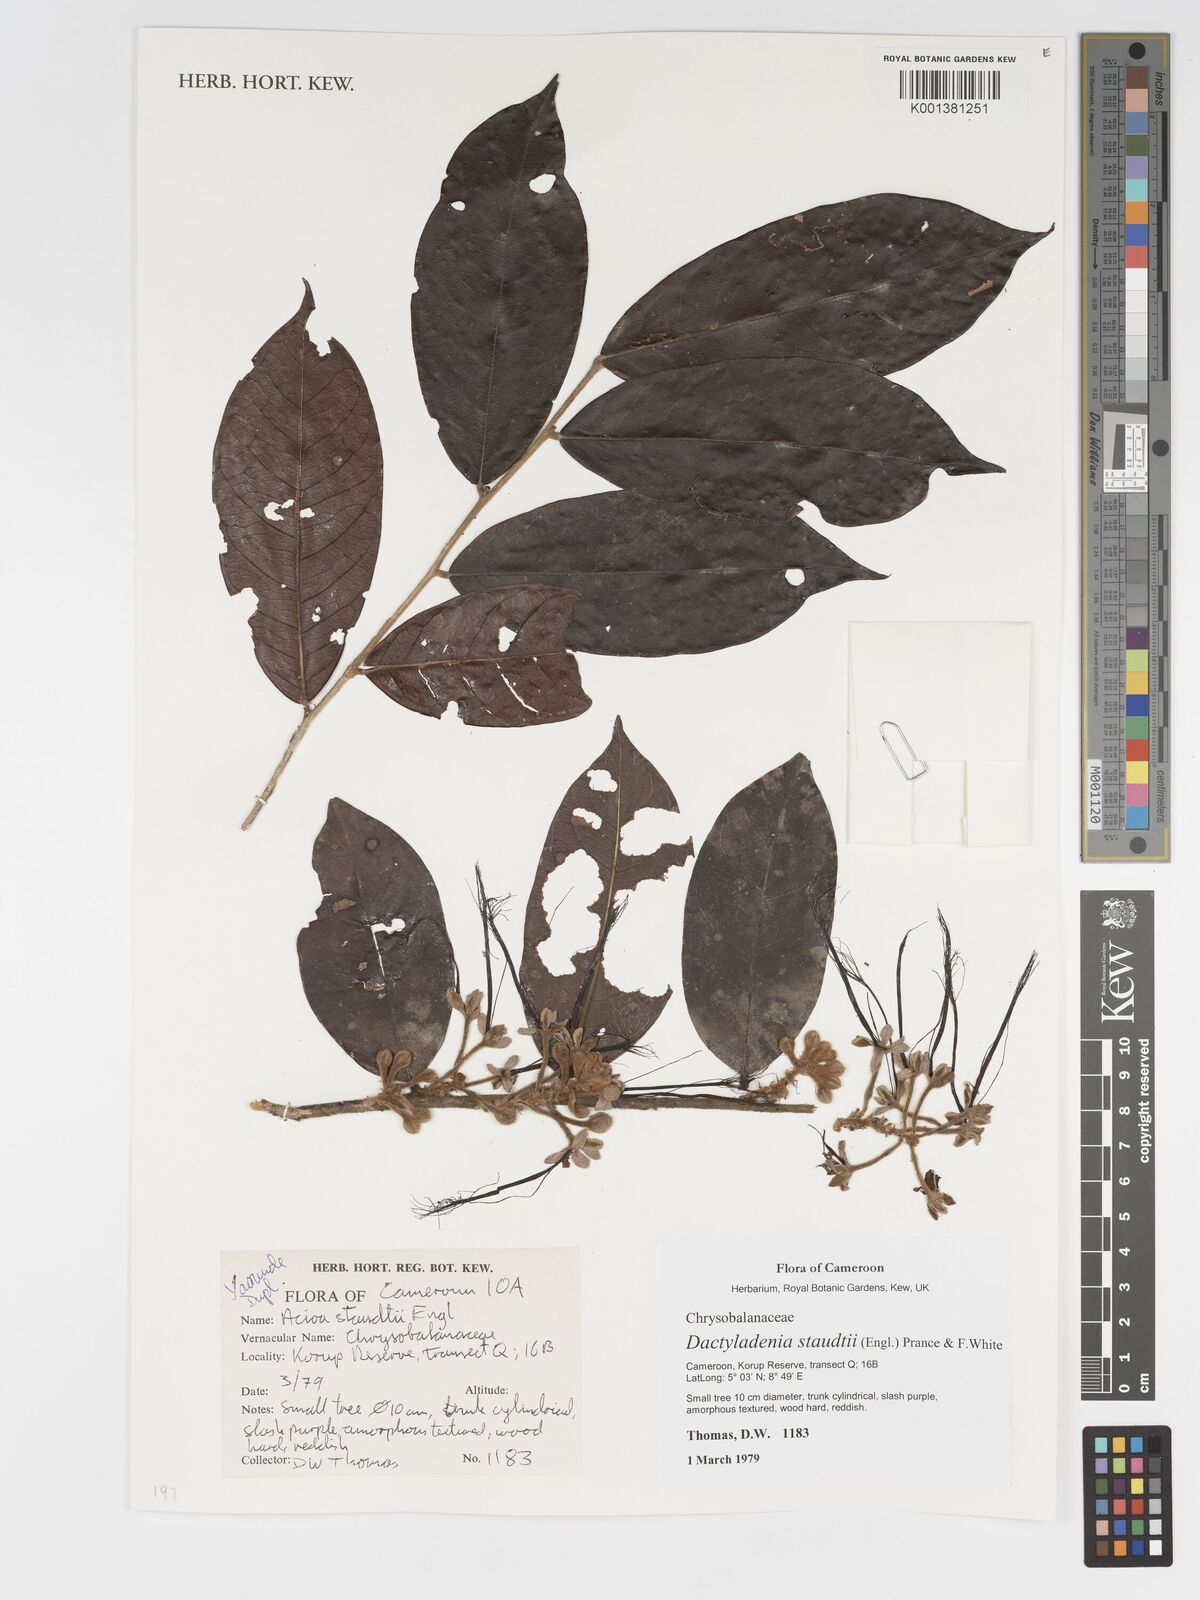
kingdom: Plantae
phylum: Tracheophyta
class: Magnoliopsida
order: Malpighiales
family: Chrysobalanaceae
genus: Dactyladenia
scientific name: Dactyladenia staudtii
